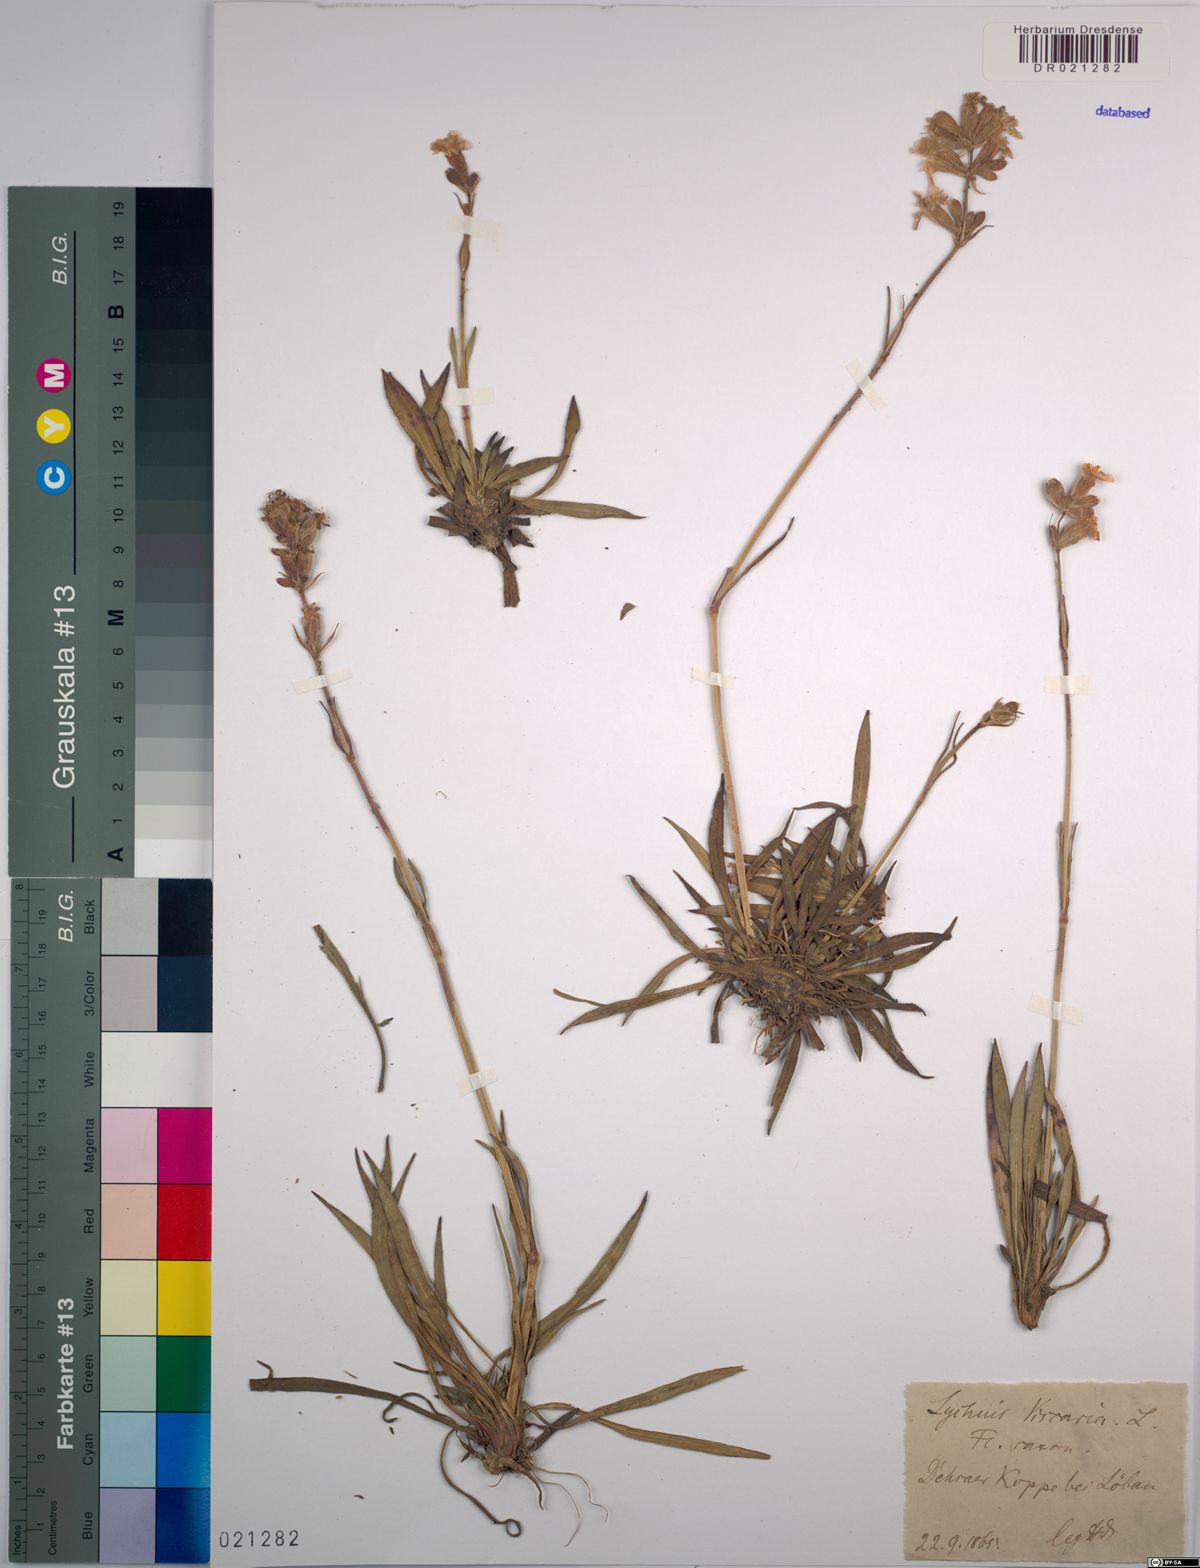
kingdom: Plantae
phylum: Tracheophyta
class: Magnoliopsida
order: Caryophyllales
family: Caryophyllaceae
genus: Viscaria
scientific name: Viscaria vulgaris
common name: Clammy campion
